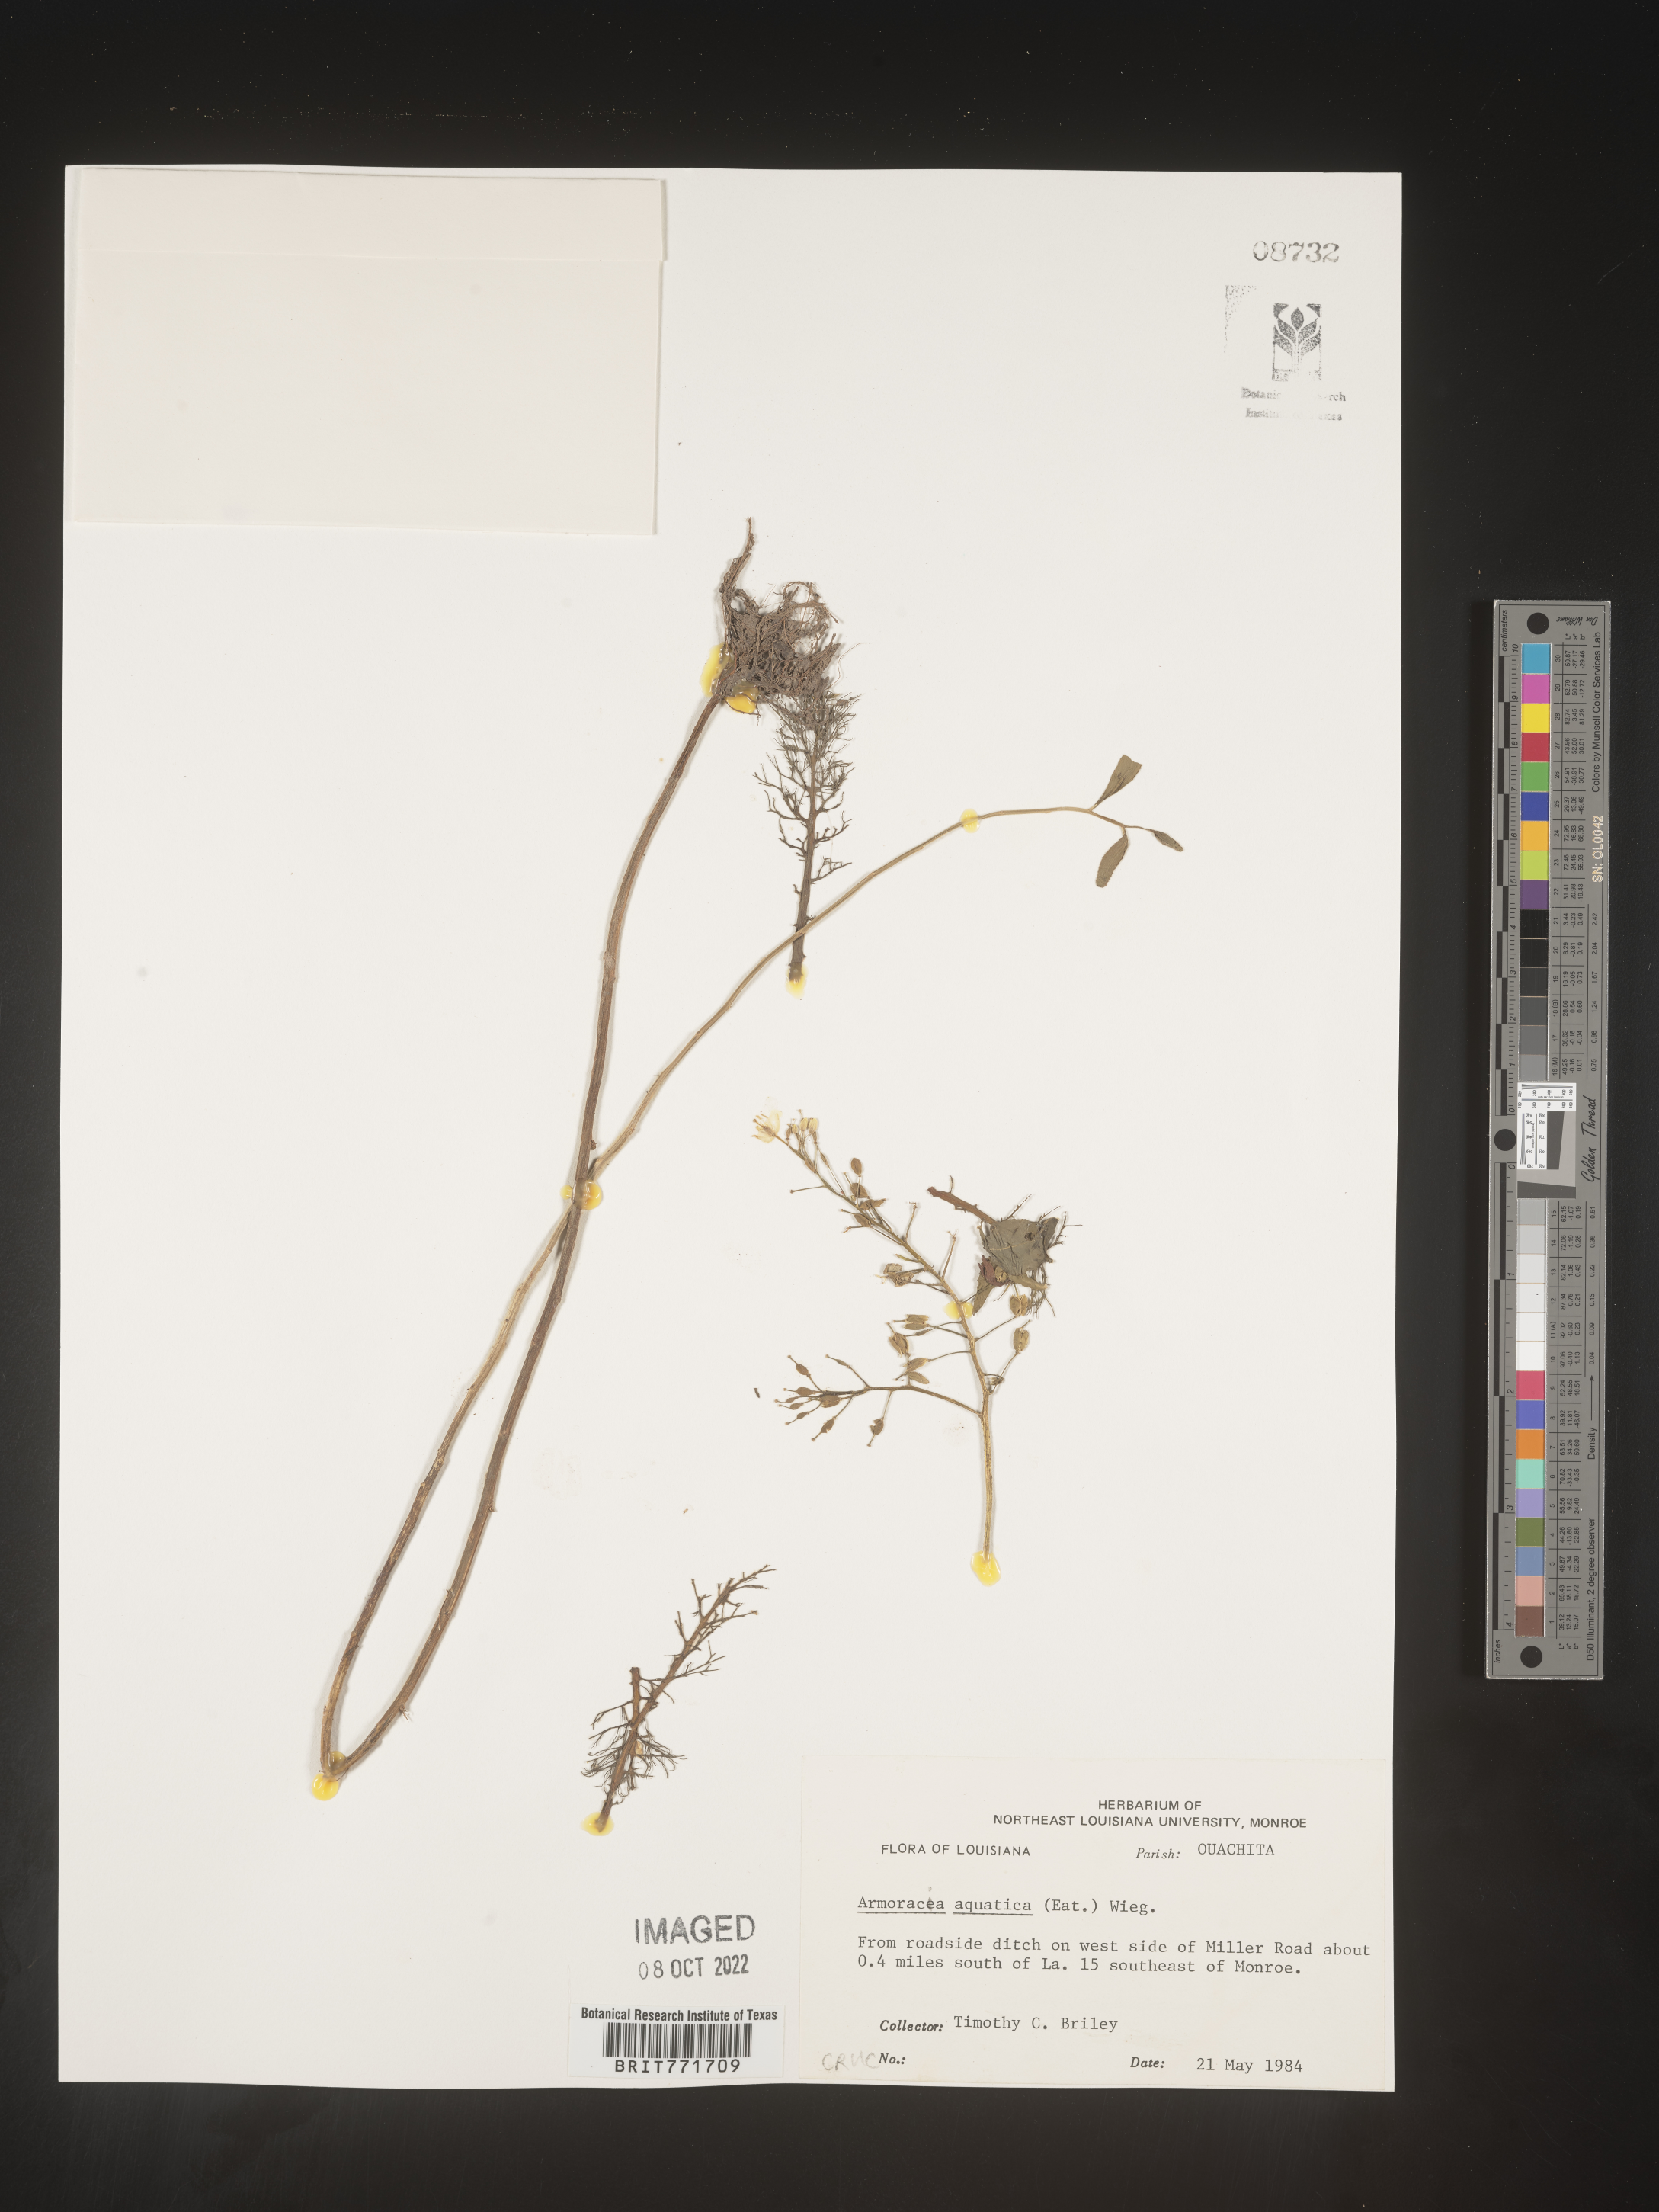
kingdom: Plantae
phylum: Tracheophyta
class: Magnoliopsida
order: Brassicales
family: Brassicaceae
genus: Armoracia
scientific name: Armoracia
